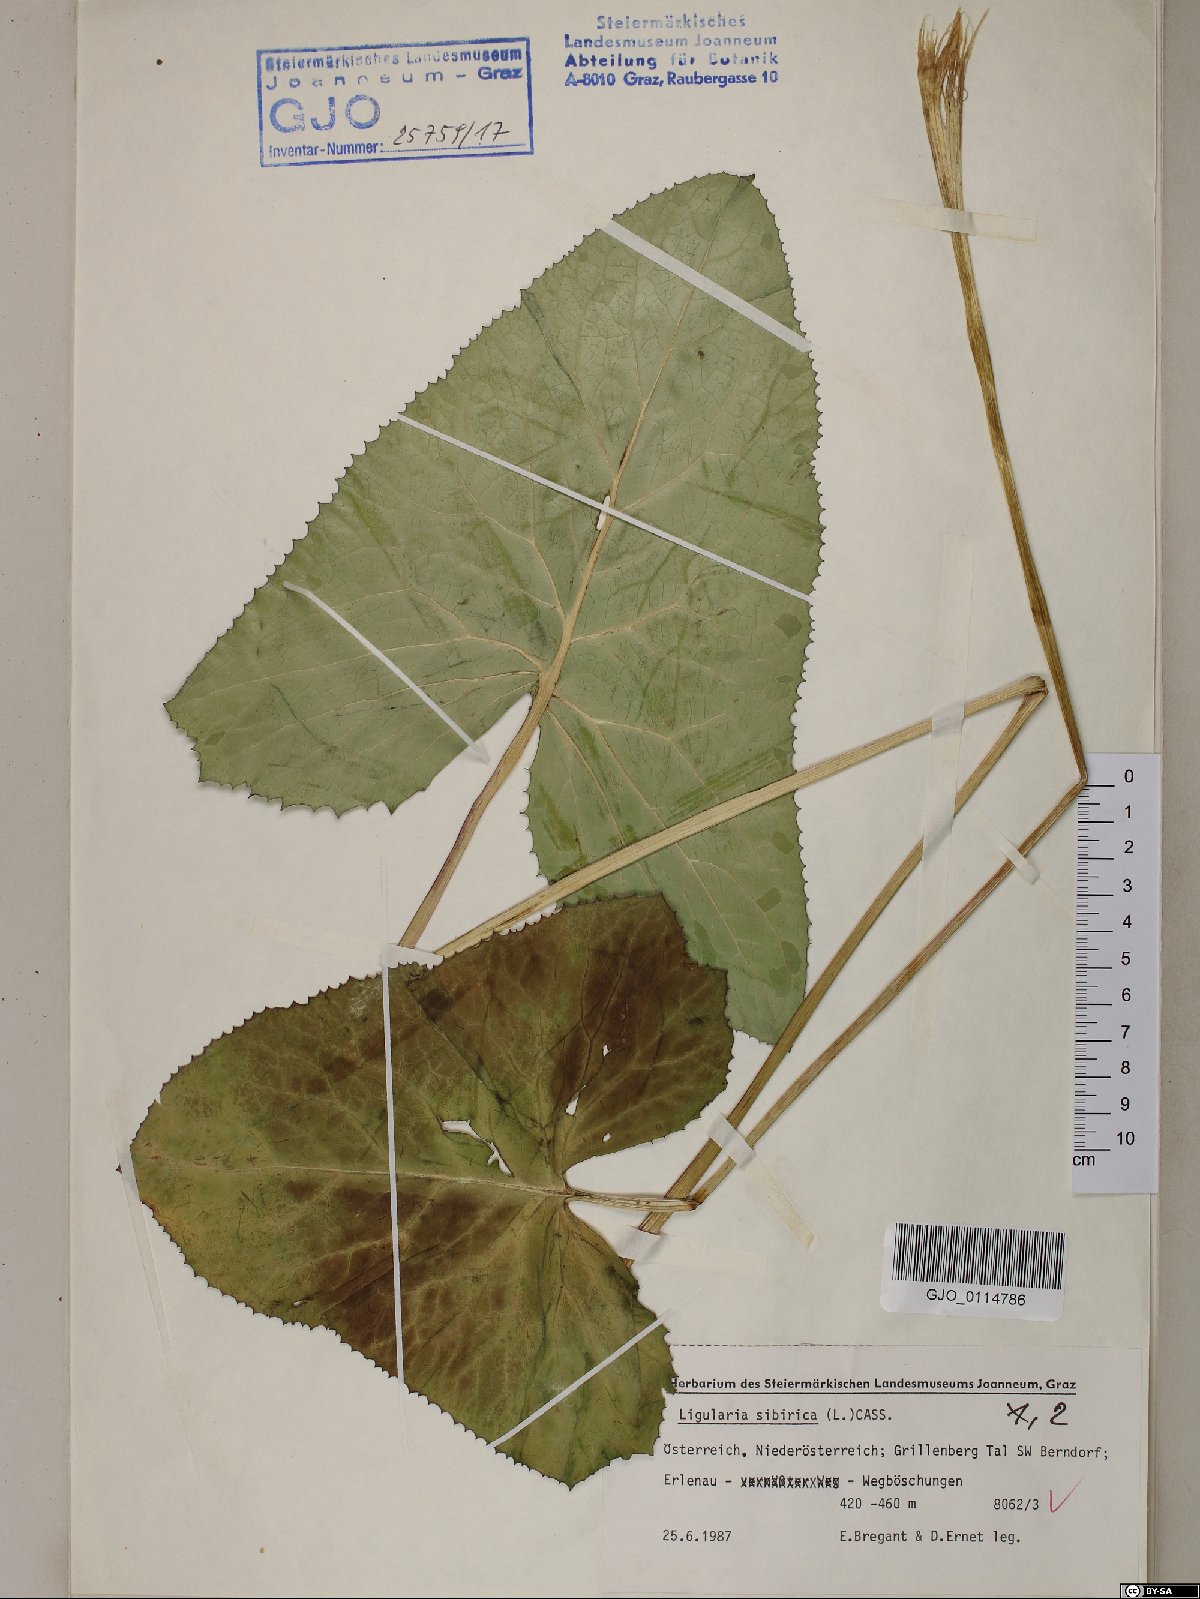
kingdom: Plantae
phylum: Tracheophyta
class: Magnoliopsida
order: Asterales
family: Asteraceae
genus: Ligularia
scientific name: Ligularia sibirica
